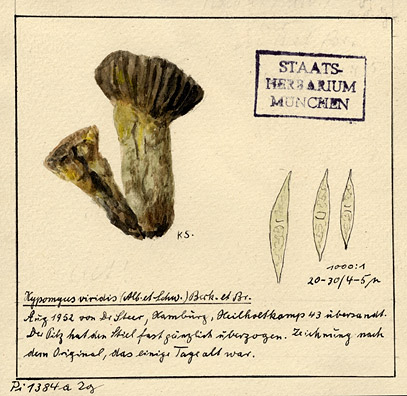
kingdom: Fungi
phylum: Ascomycota
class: Sordariomycetes
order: Hypocreales
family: Hypocreaceae
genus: Hypomyces
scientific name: Hypomyces luteovirens
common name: Yellow-green russula mold
